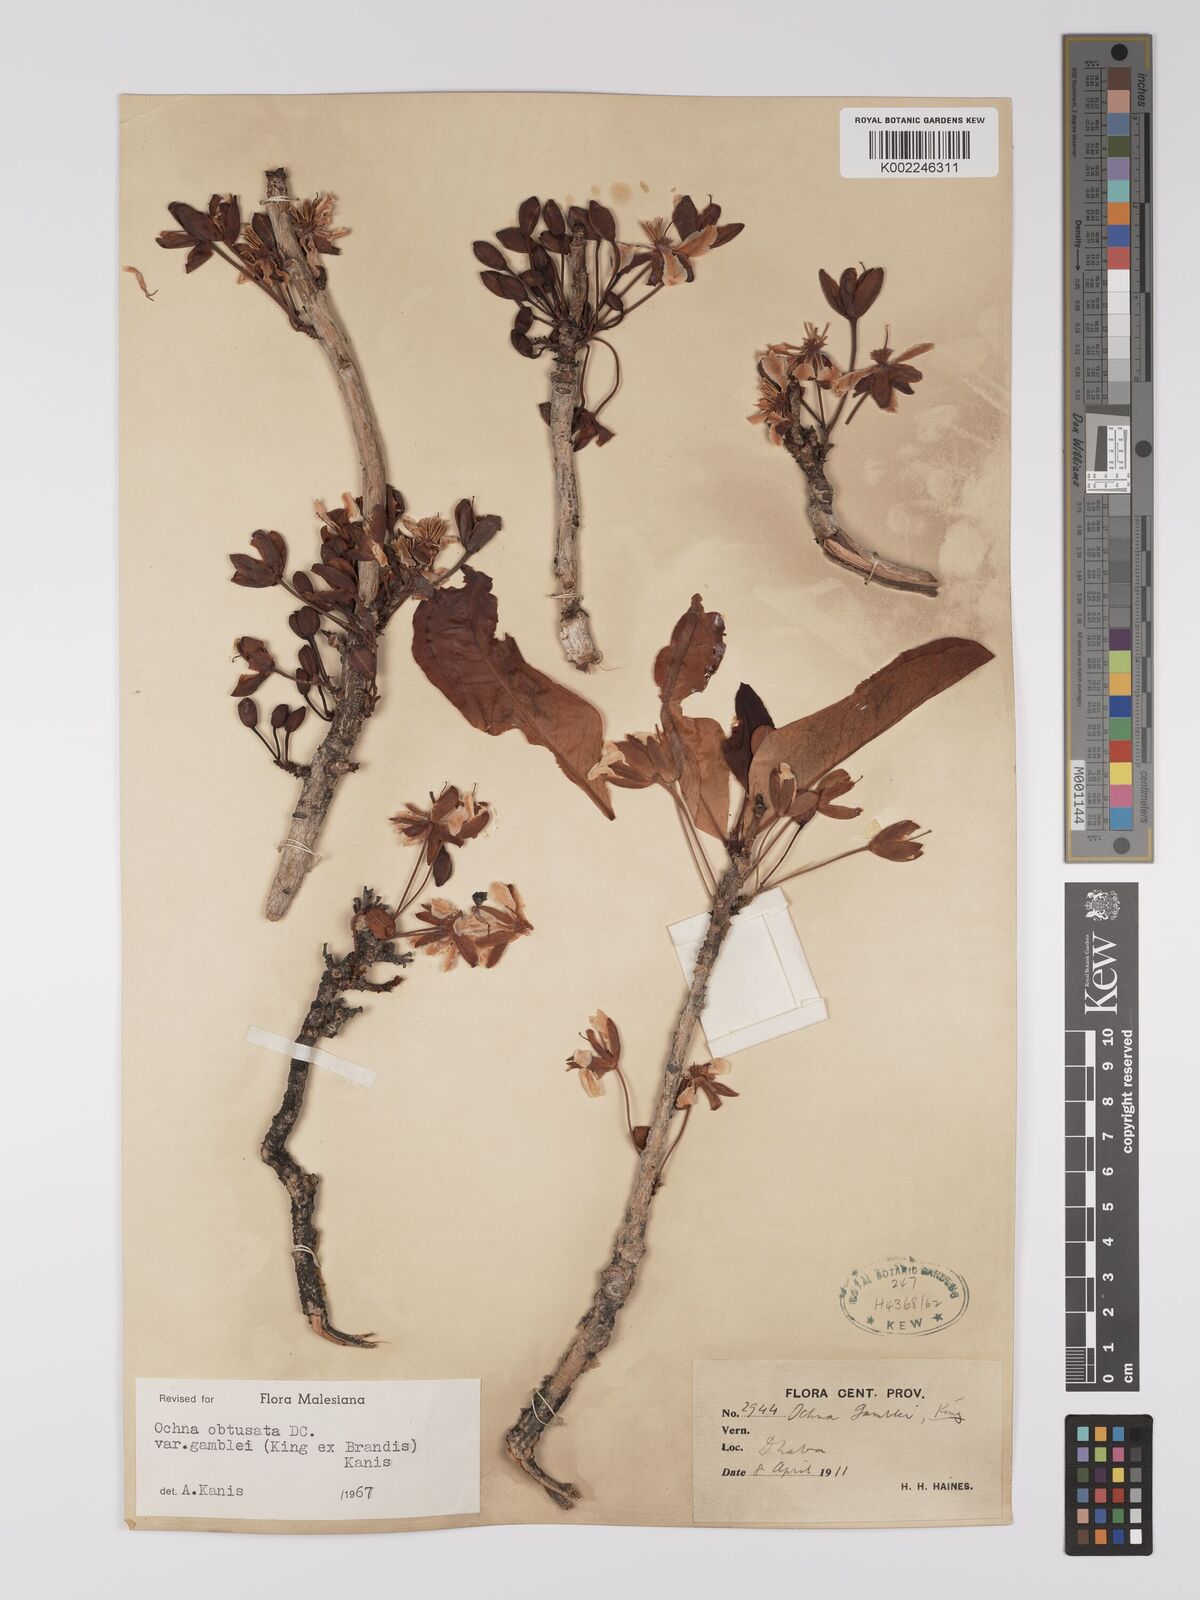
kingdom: Plantae
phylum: Tracheophyta
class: Magnoliopsida
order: Malpighiales
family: Ochnaceae
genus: Ochna
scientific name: Ochna obtusata
